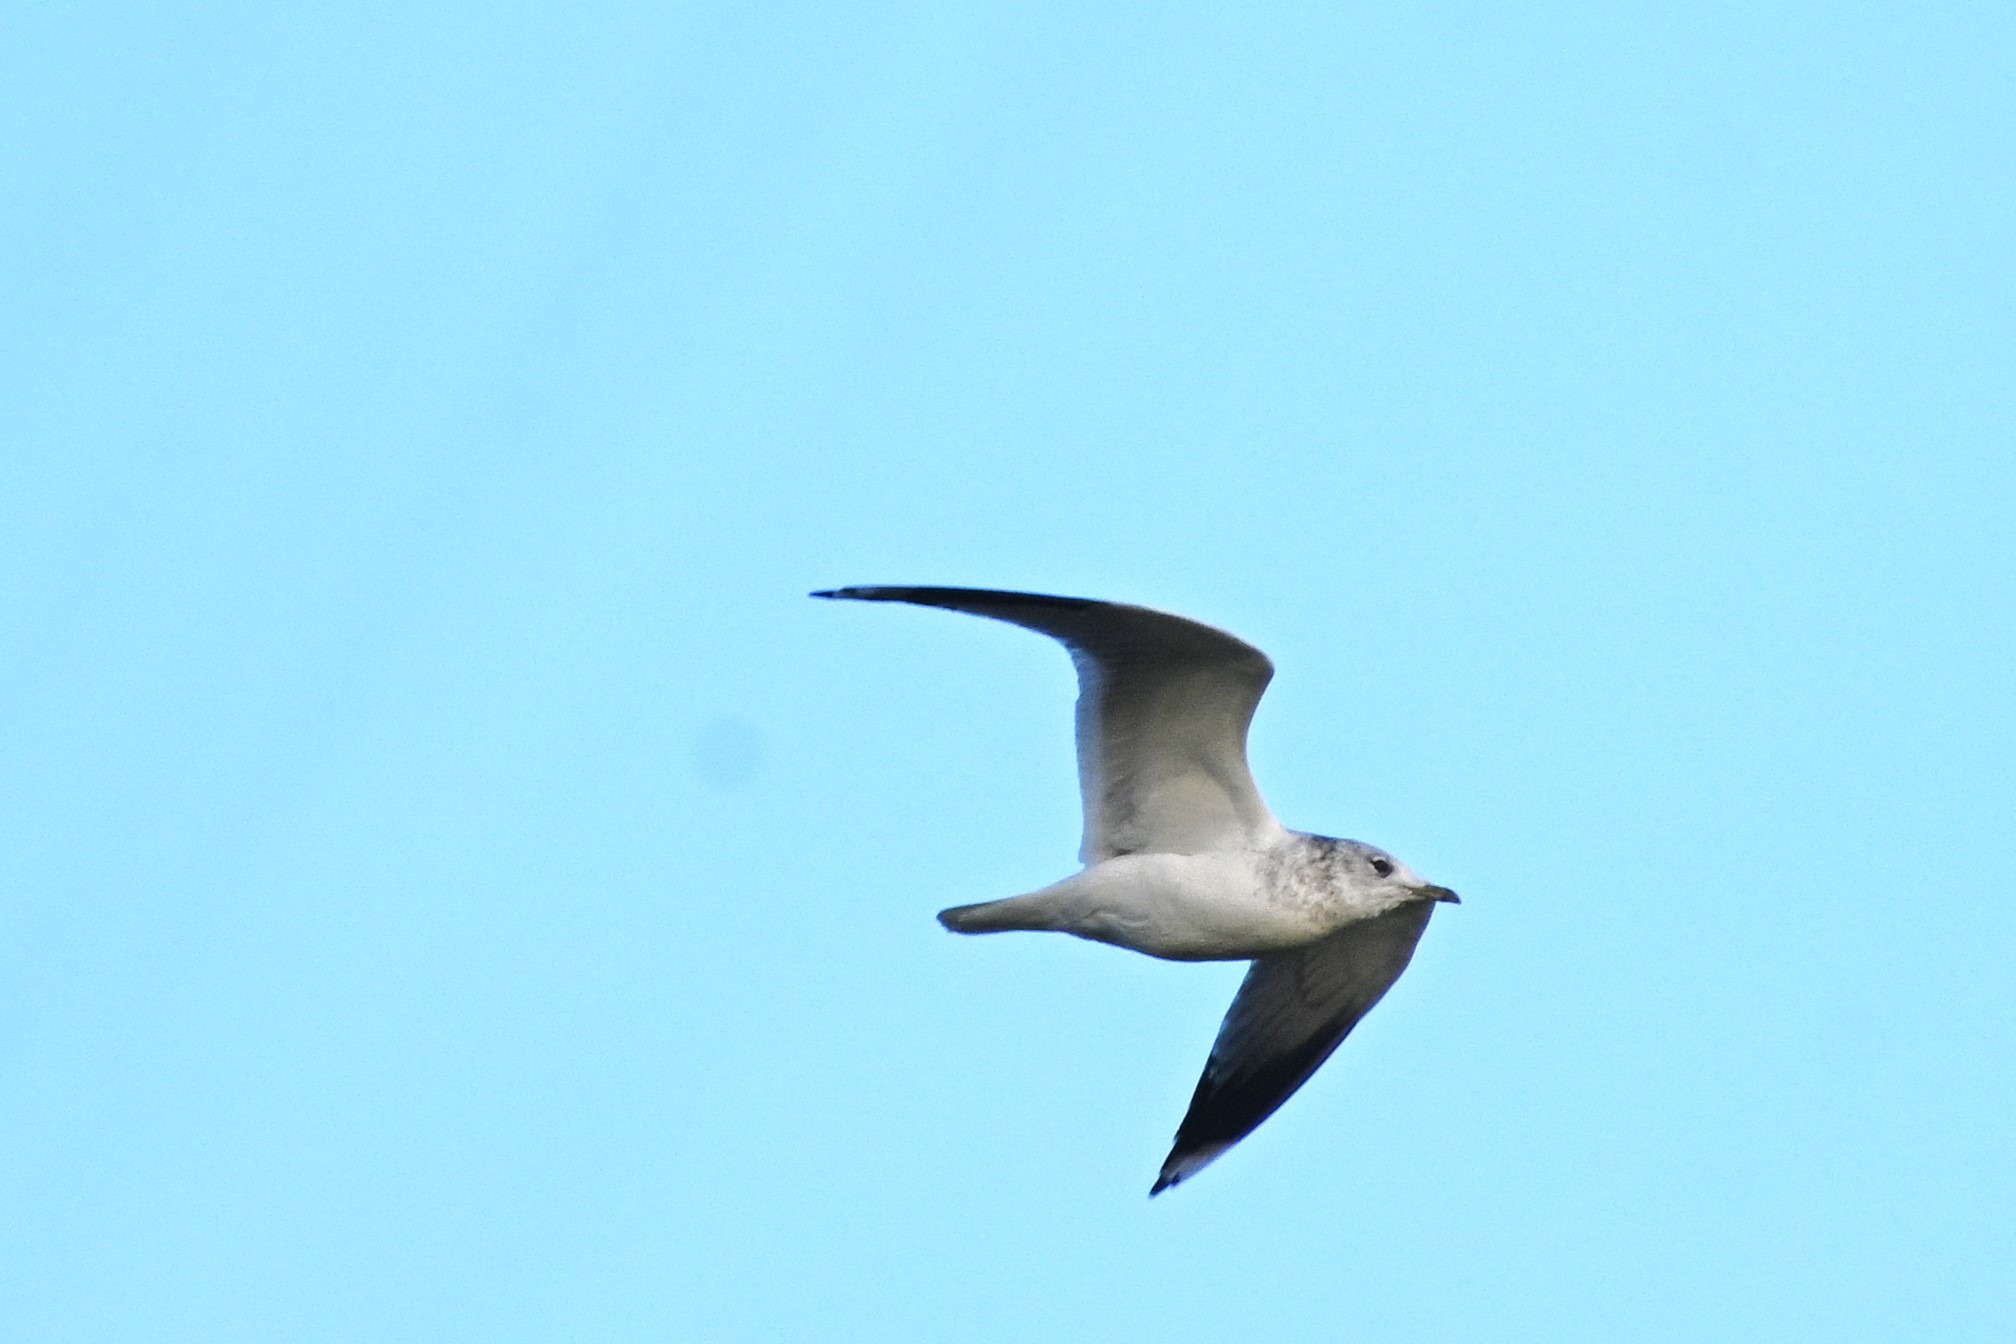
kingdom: Animalia
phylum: Chordata
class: Aves
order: Charadriiformes
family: Laridae
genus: Larus
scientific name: Larus canus
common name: Stormmåge
